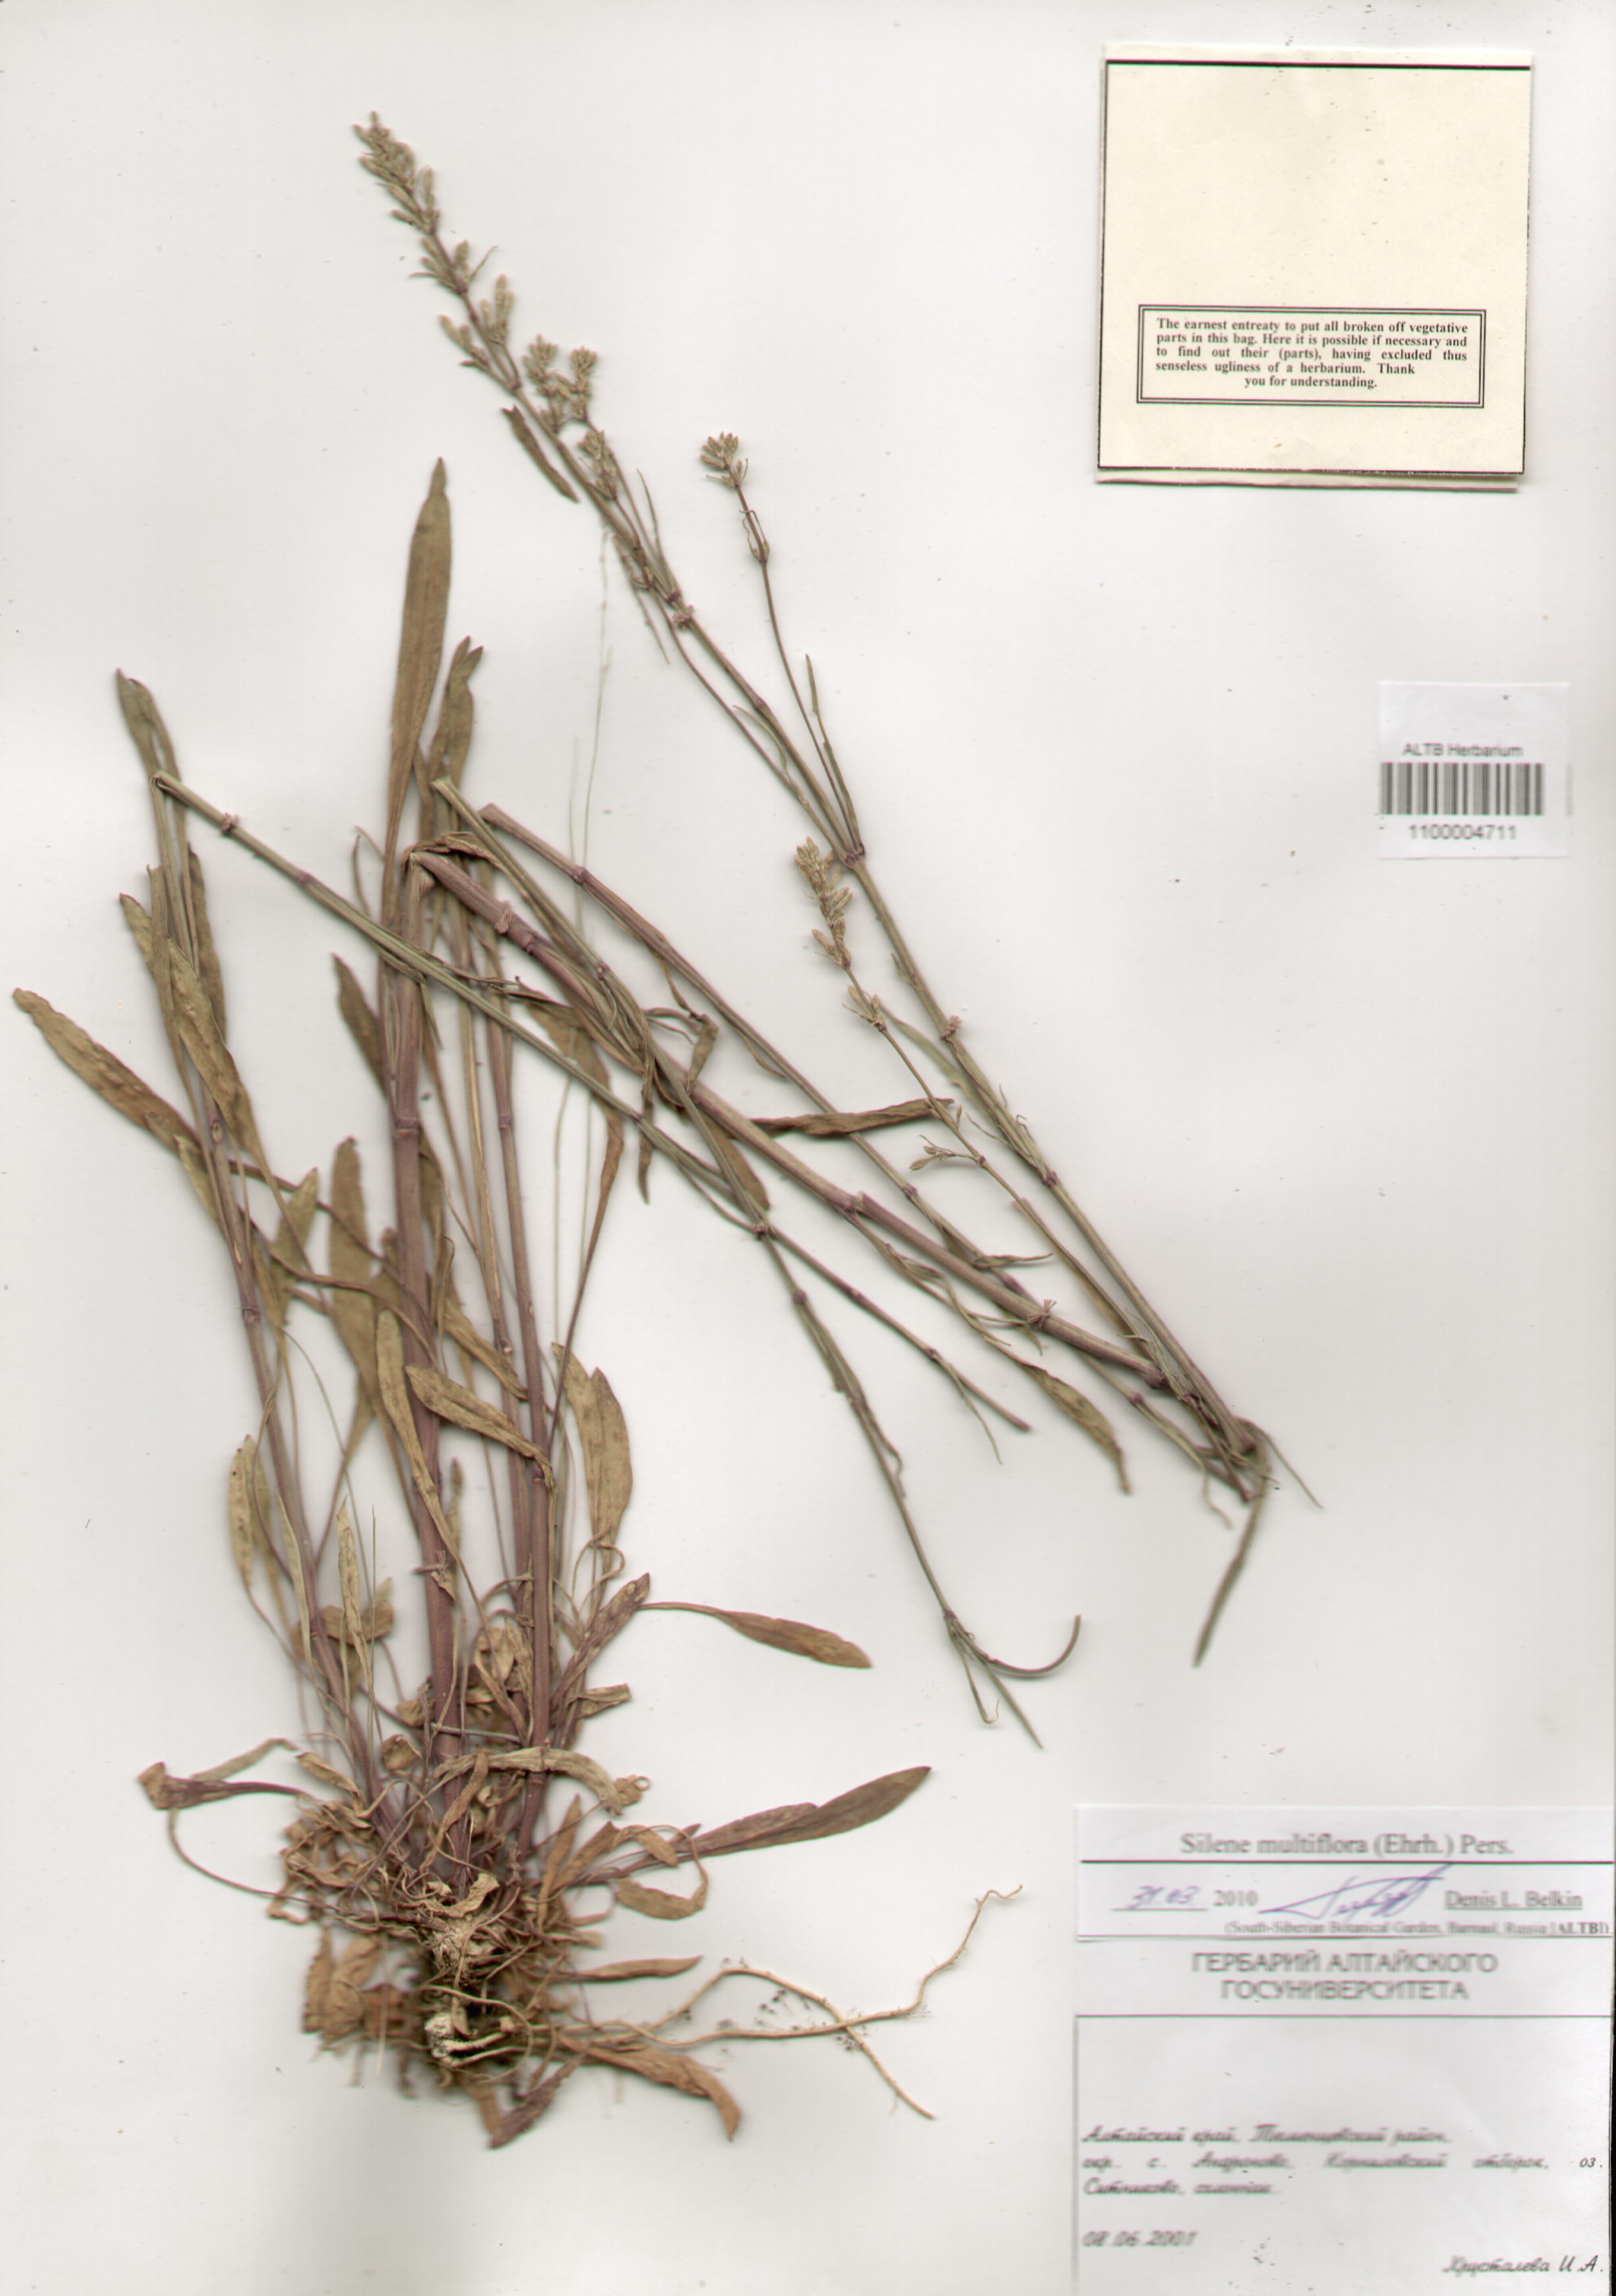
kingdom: Plantae
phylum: Tracheophyta
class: Magnoliopsida
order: Caryophyllales
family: Caryophyllaceae
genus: Silene
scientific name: Silene multiflora
